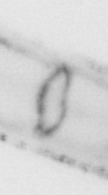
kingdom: Animalia
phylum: Chaetognatha
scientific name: Chaetognatha
